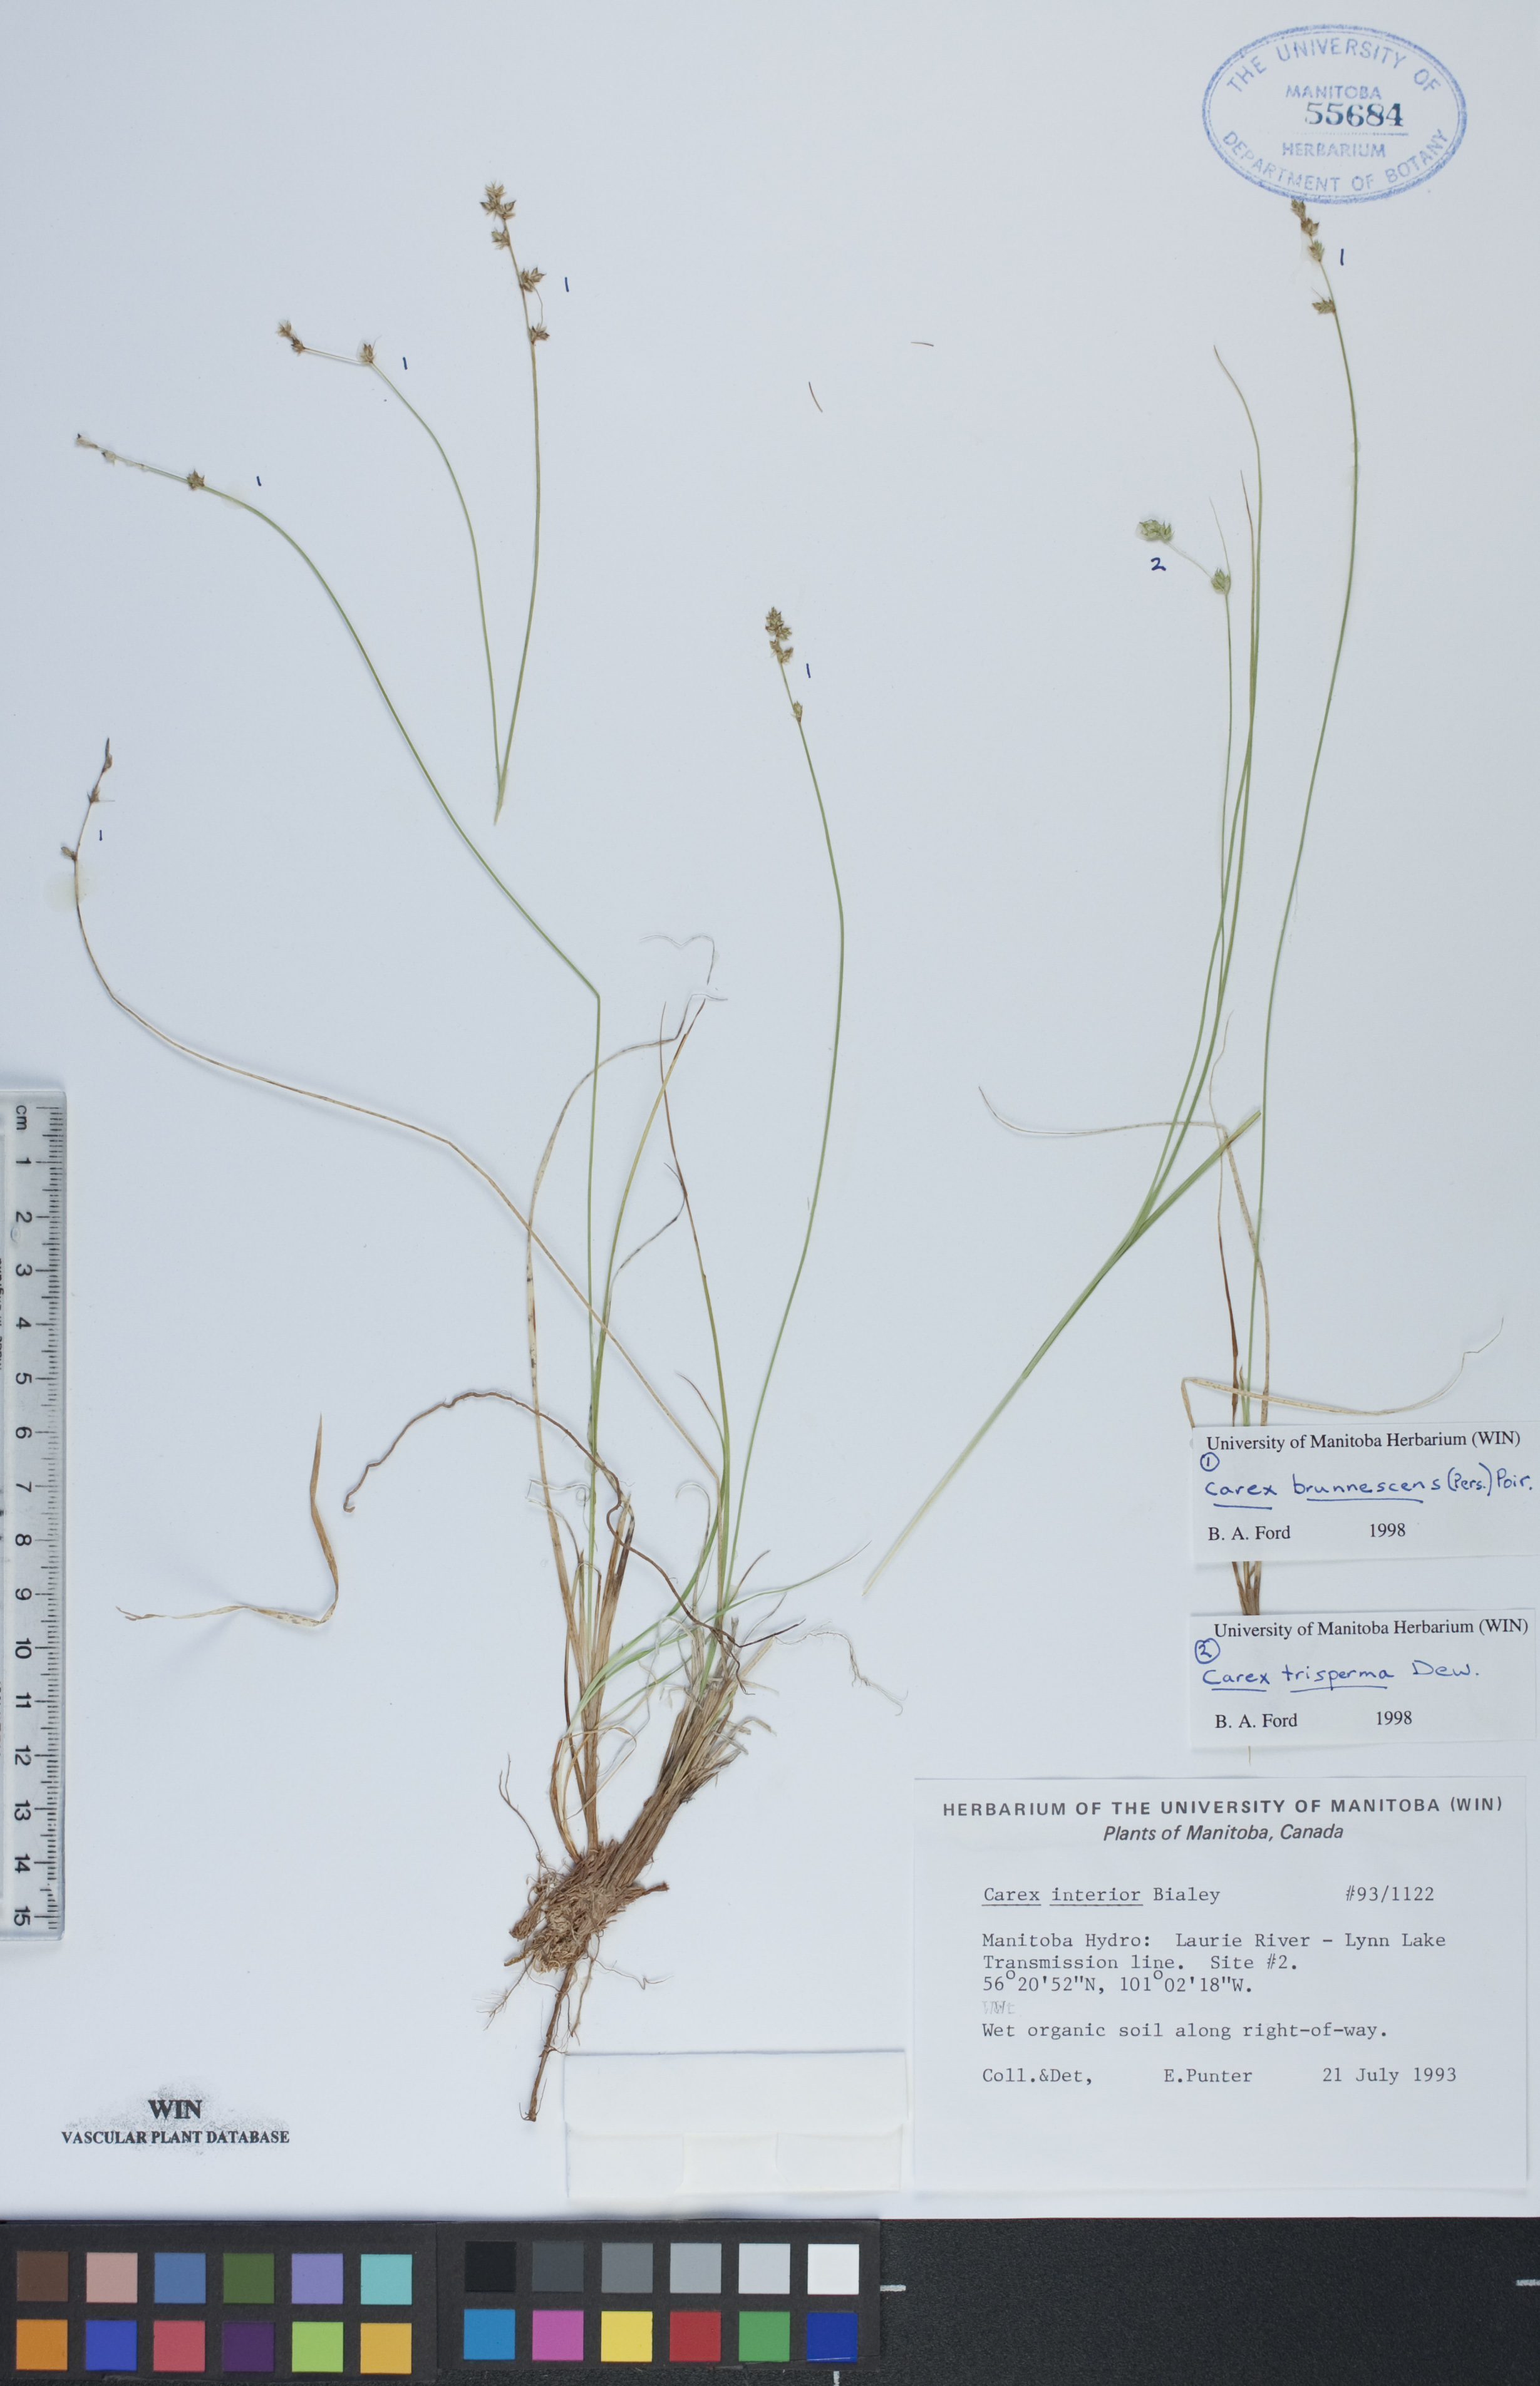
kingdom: Plantae
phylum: Tracheophyta
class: Liliopsida
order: Poales
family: Cyperaceae
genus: Carex
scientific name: Carex brunnescens
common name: Brown sedge
